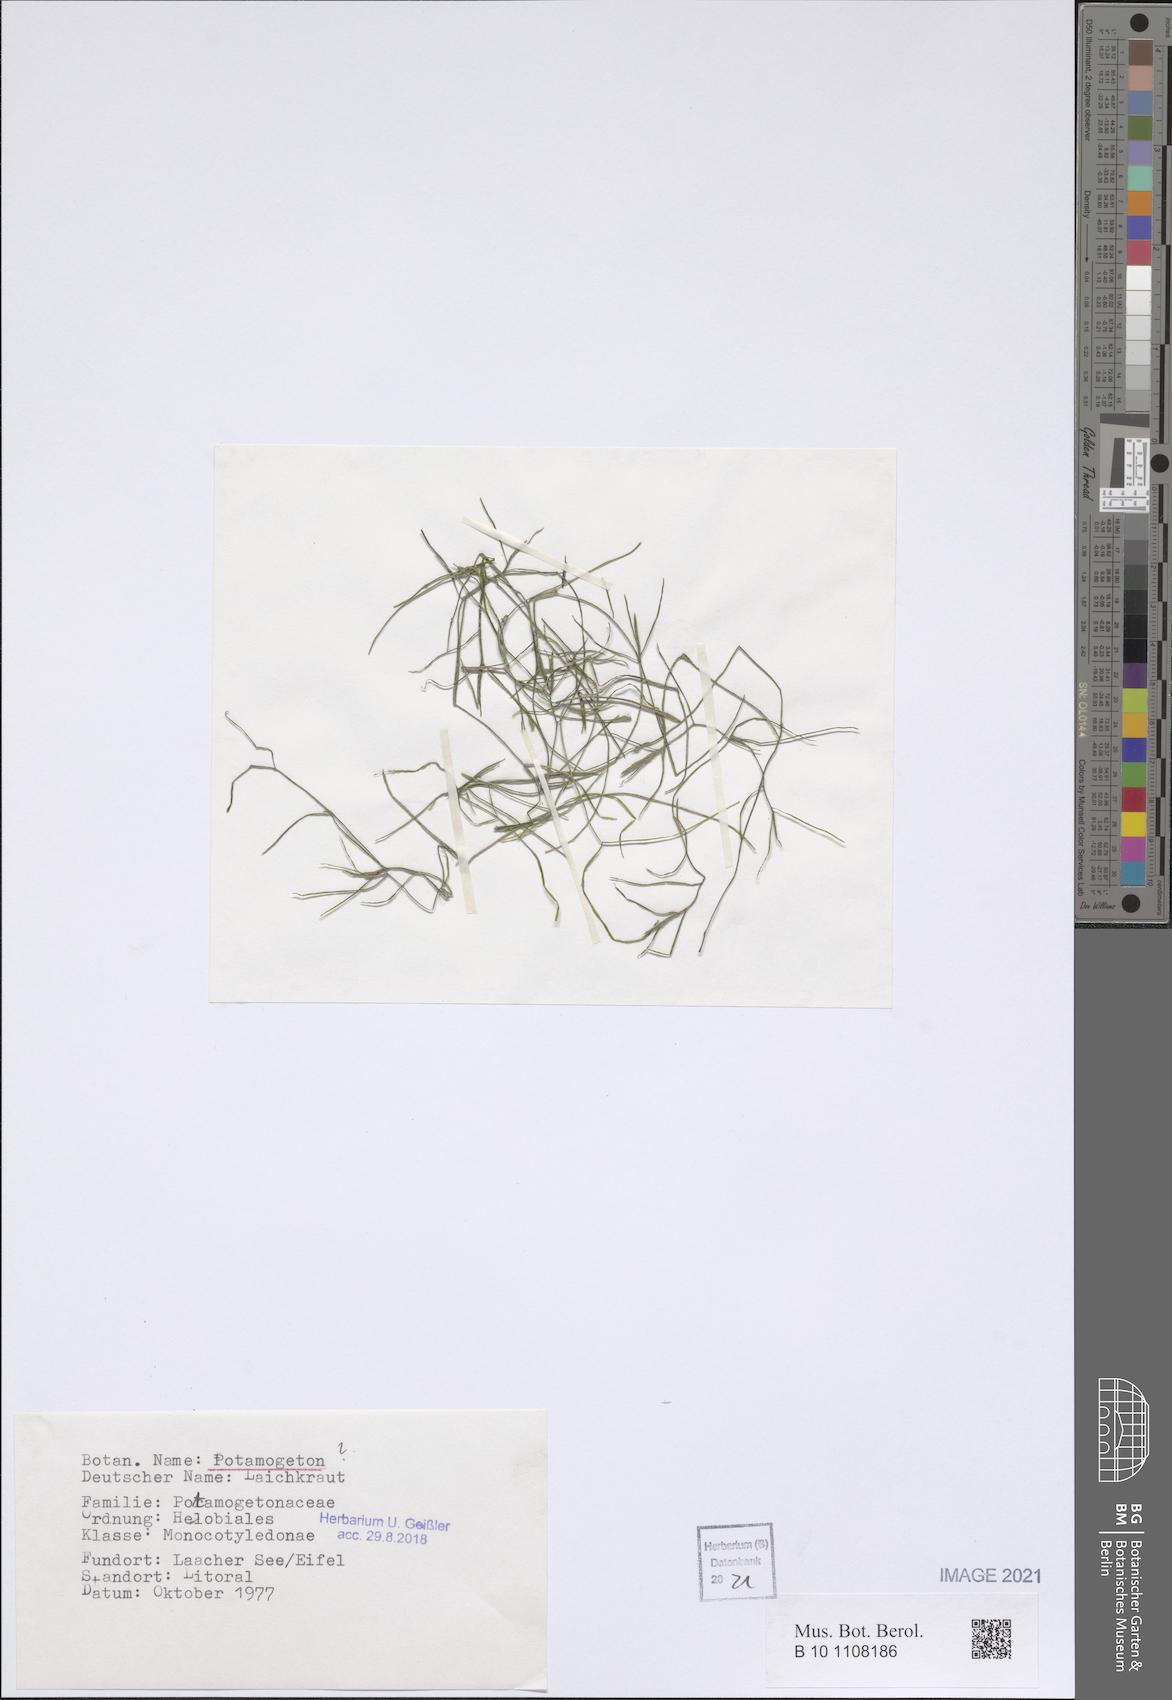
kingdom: Plantae
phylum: Tracheophyta
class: Liliopsida
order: Alismatales
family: Potamogetonaceae
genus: Potamogeton
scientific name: Potamogeton
